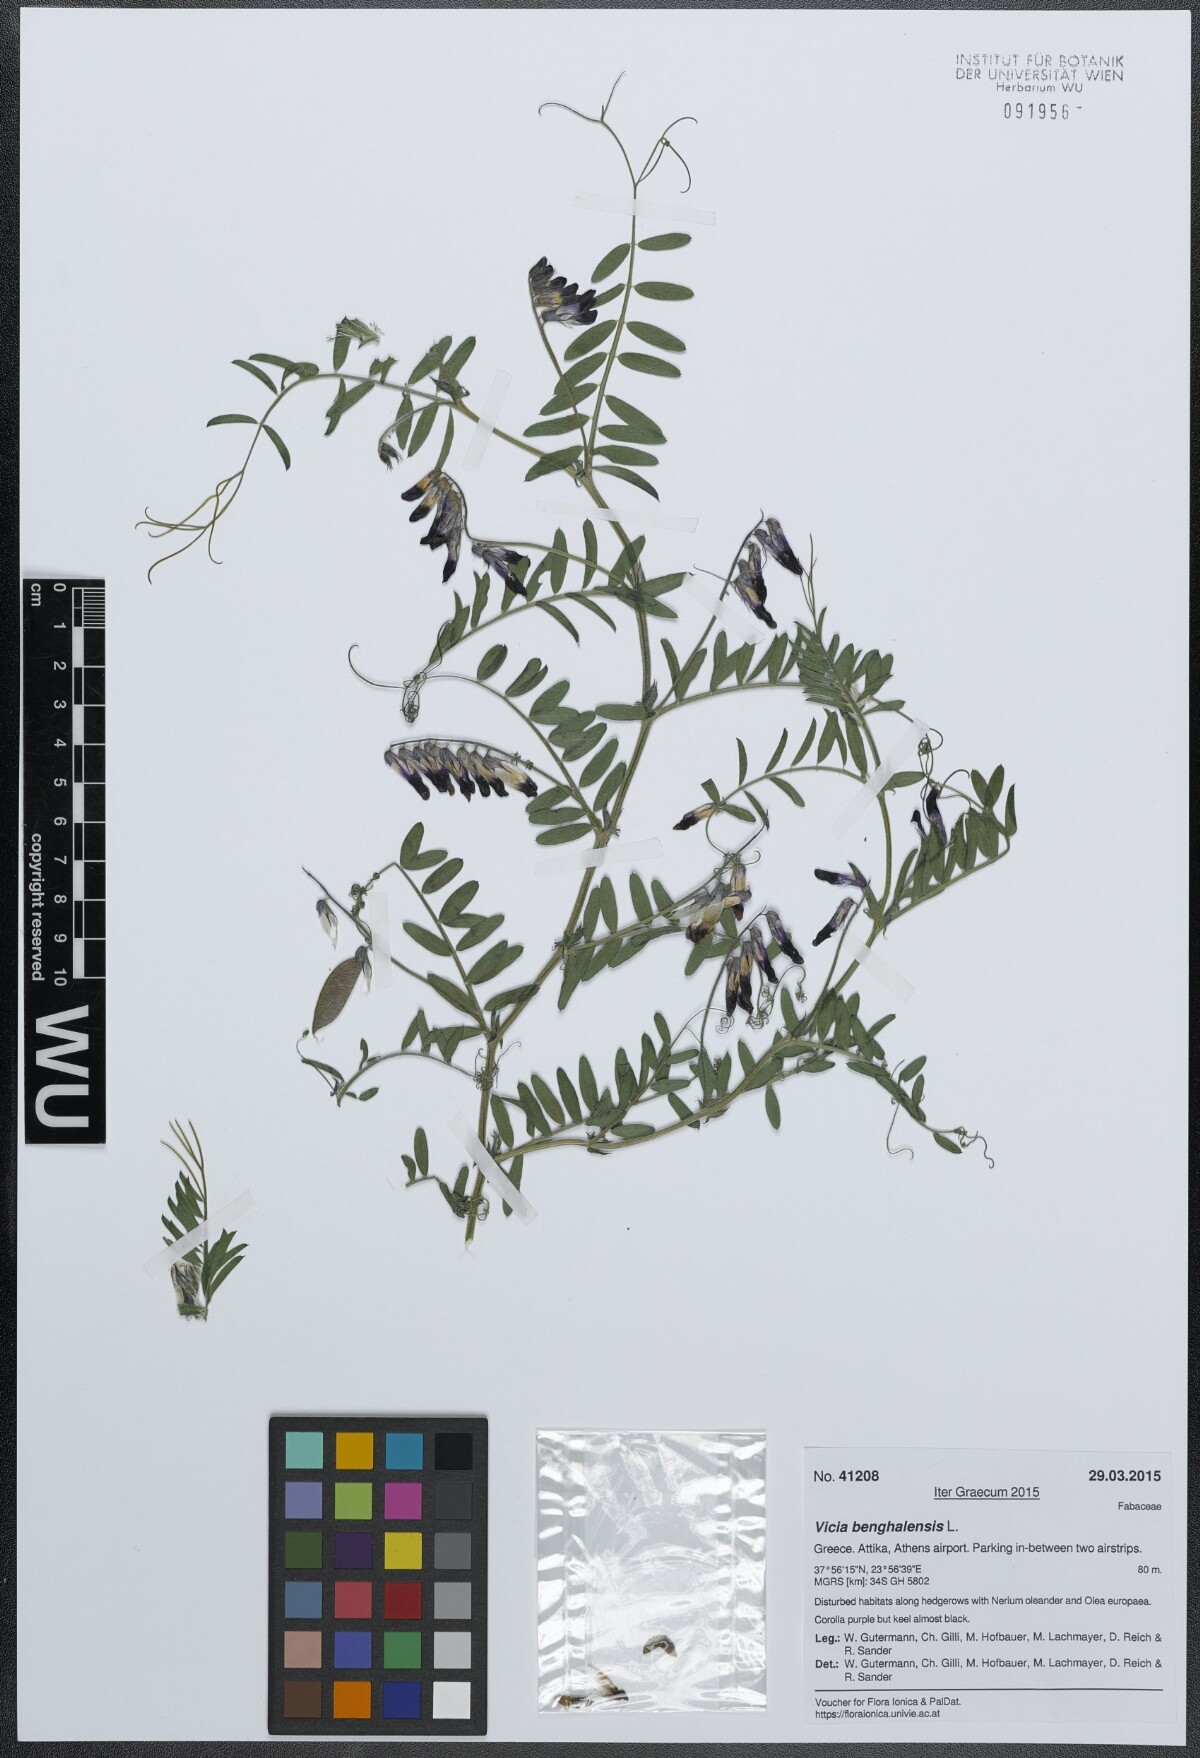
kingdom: Plantae
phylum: Tracheophyta
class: Magnoliopsida
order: Fabales
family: Fabaceae
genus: Vicia
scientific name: Vicia benghalensis
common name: Purple vetch
